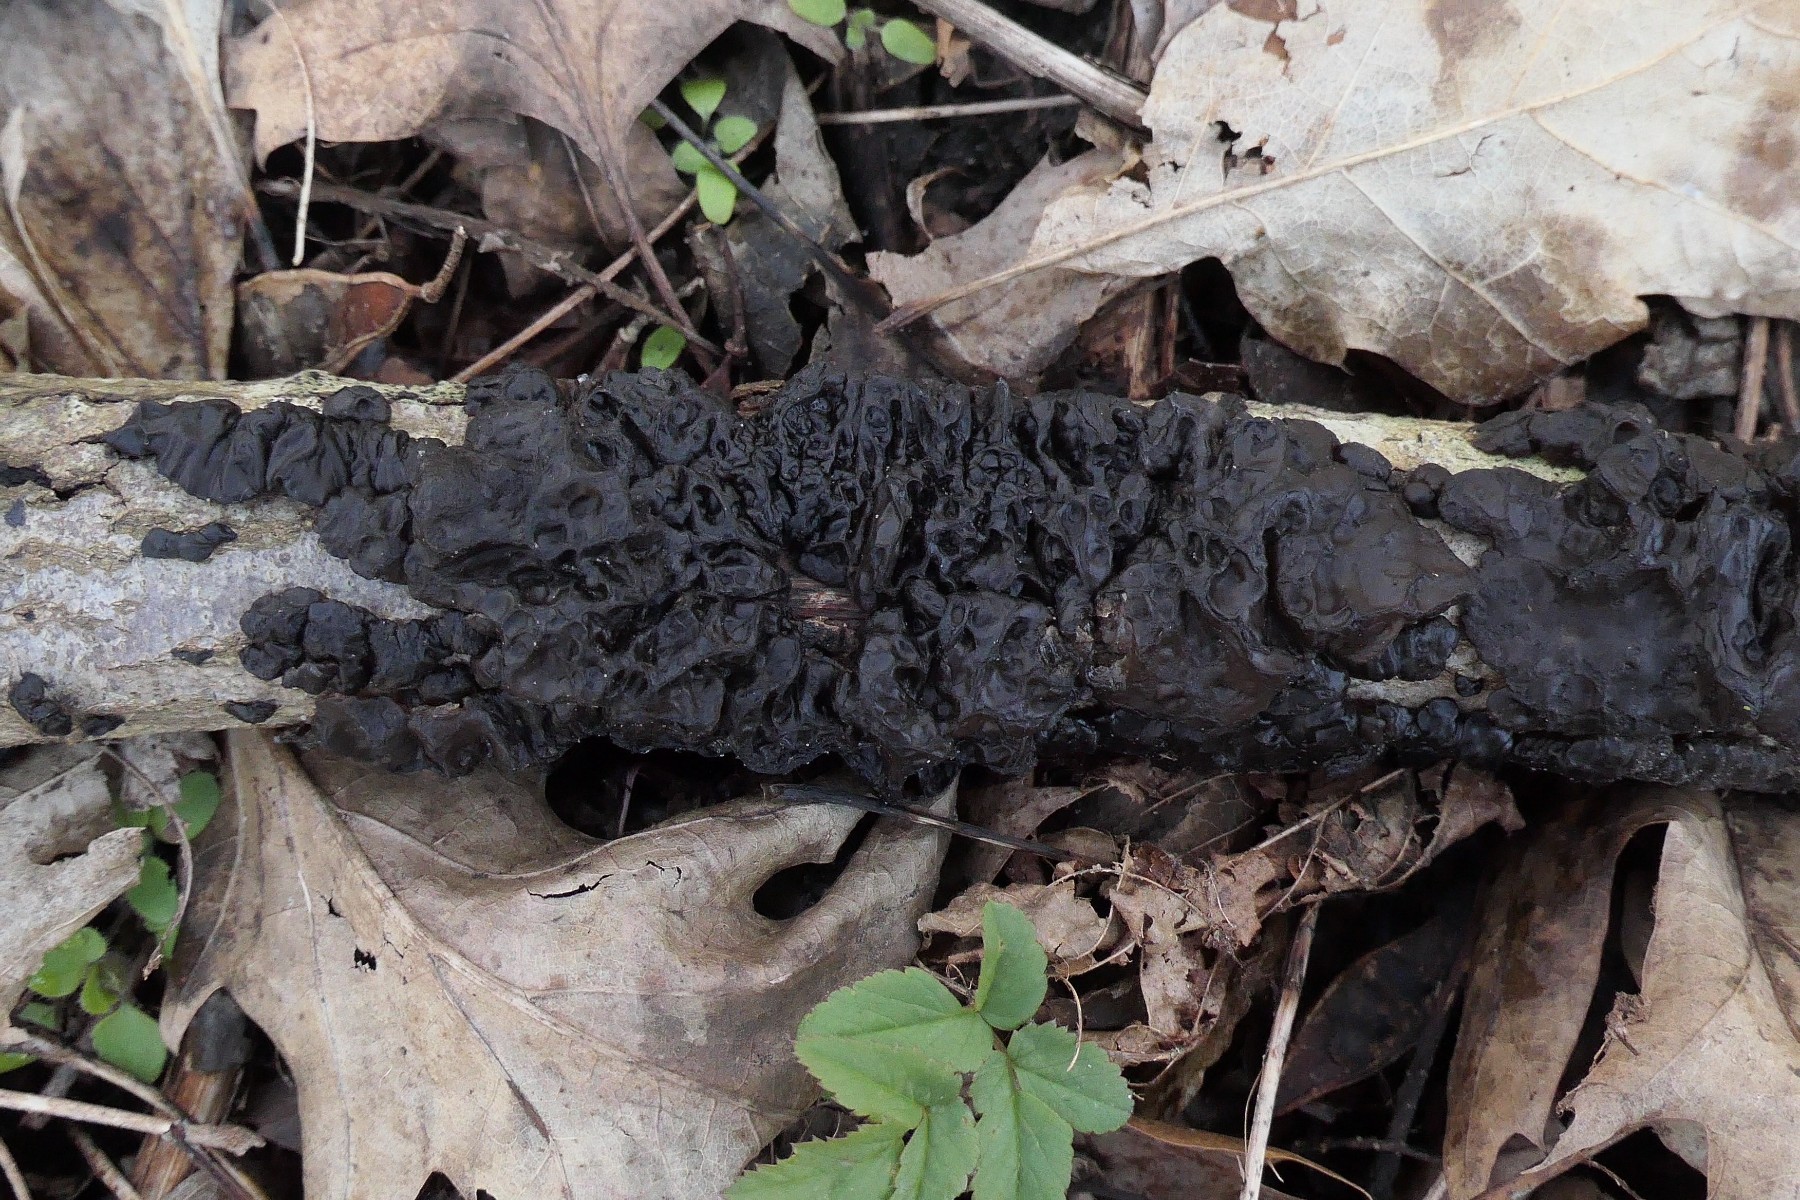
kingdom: Fungi
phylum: Basidiomycota
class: Agaricomycetes
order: Auriculariales
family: Auriculariaceae
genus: Exidia
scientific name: Exidia nigricans
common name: almindelig bævretop
